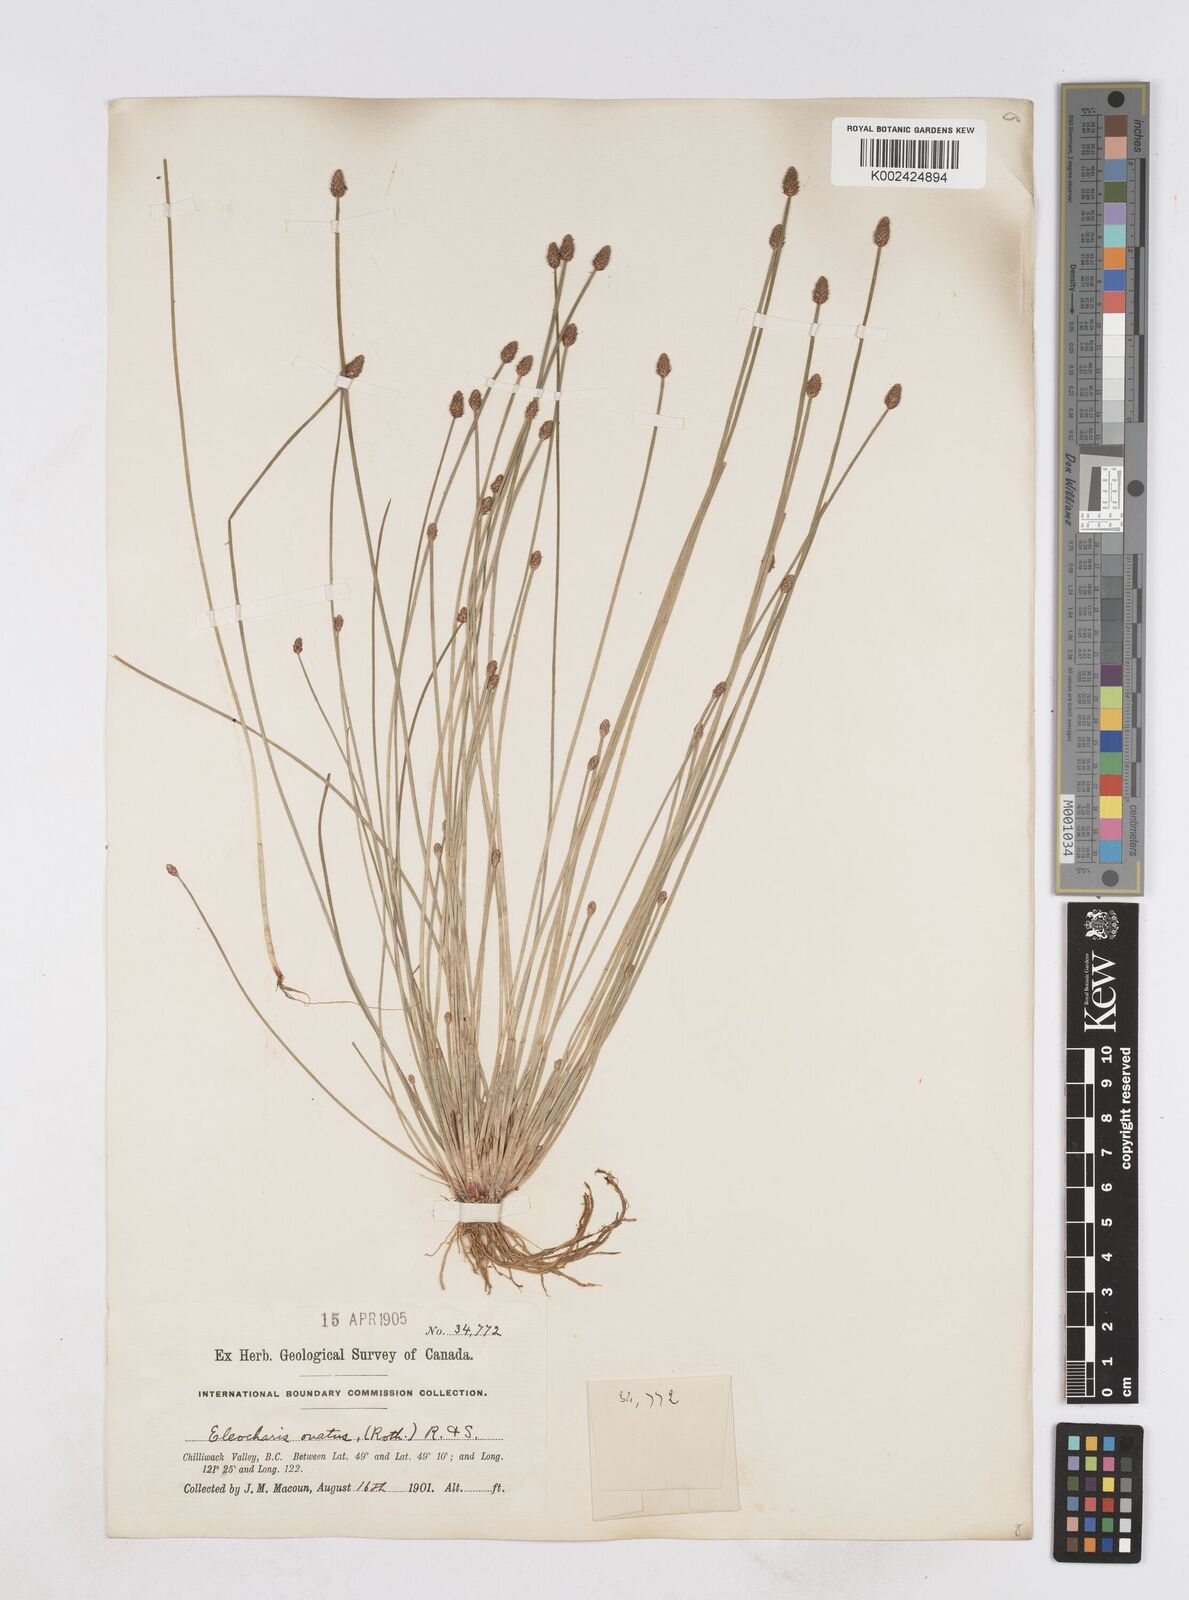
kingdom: Plantae
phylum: Tracheophyta
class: Liliopsida
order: Poales
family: Cyperaceae
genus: Eleocharis
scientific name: Eleocharis ovata
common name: Oval spike-rush
